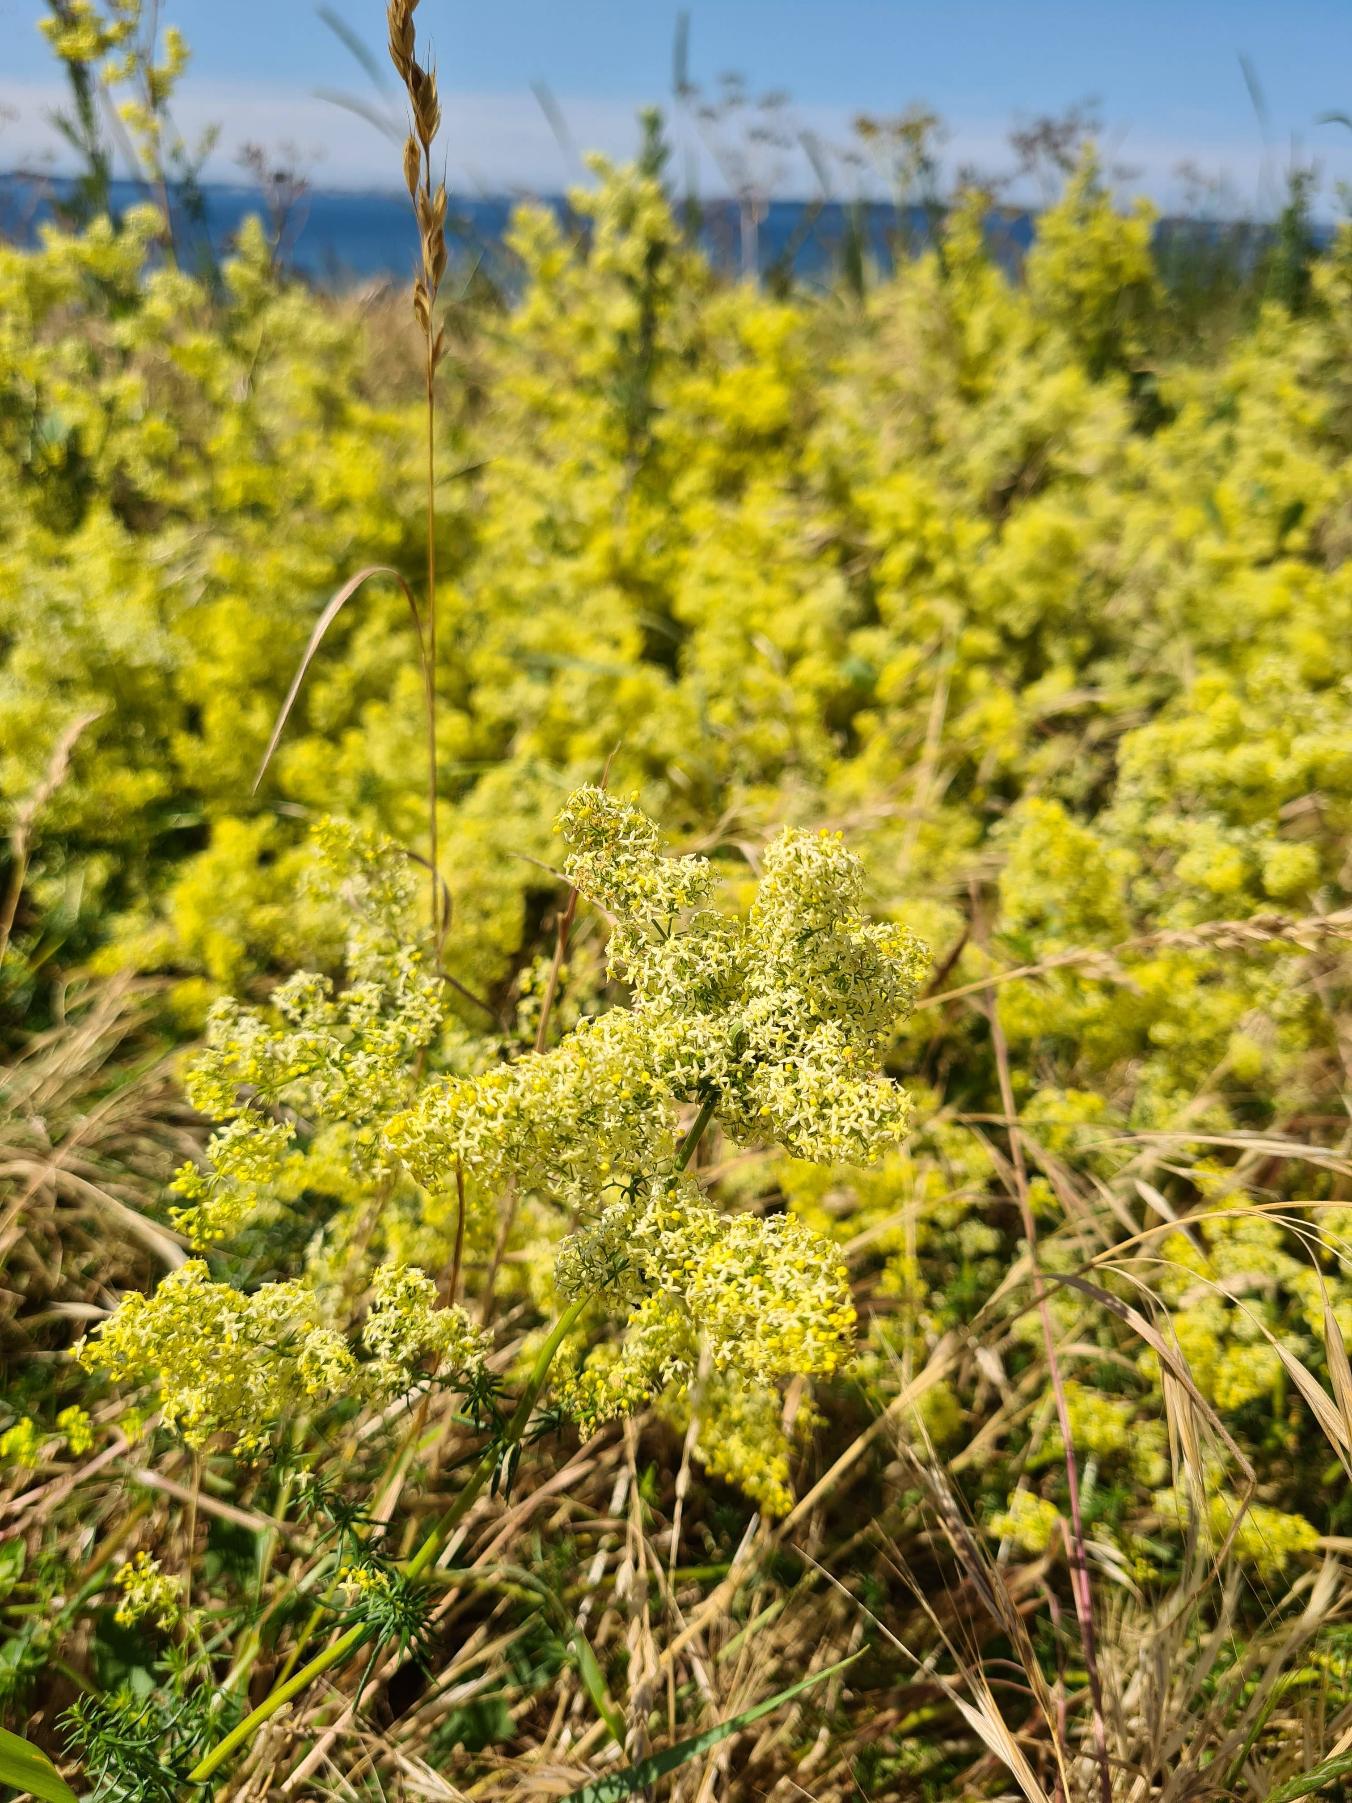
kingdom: Plantae
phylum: Tracheophyta
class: Magnoliopsida
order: Gentianales
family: Rubiaceae
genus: Galium
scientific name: Galium
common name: Hvidgul snerre
